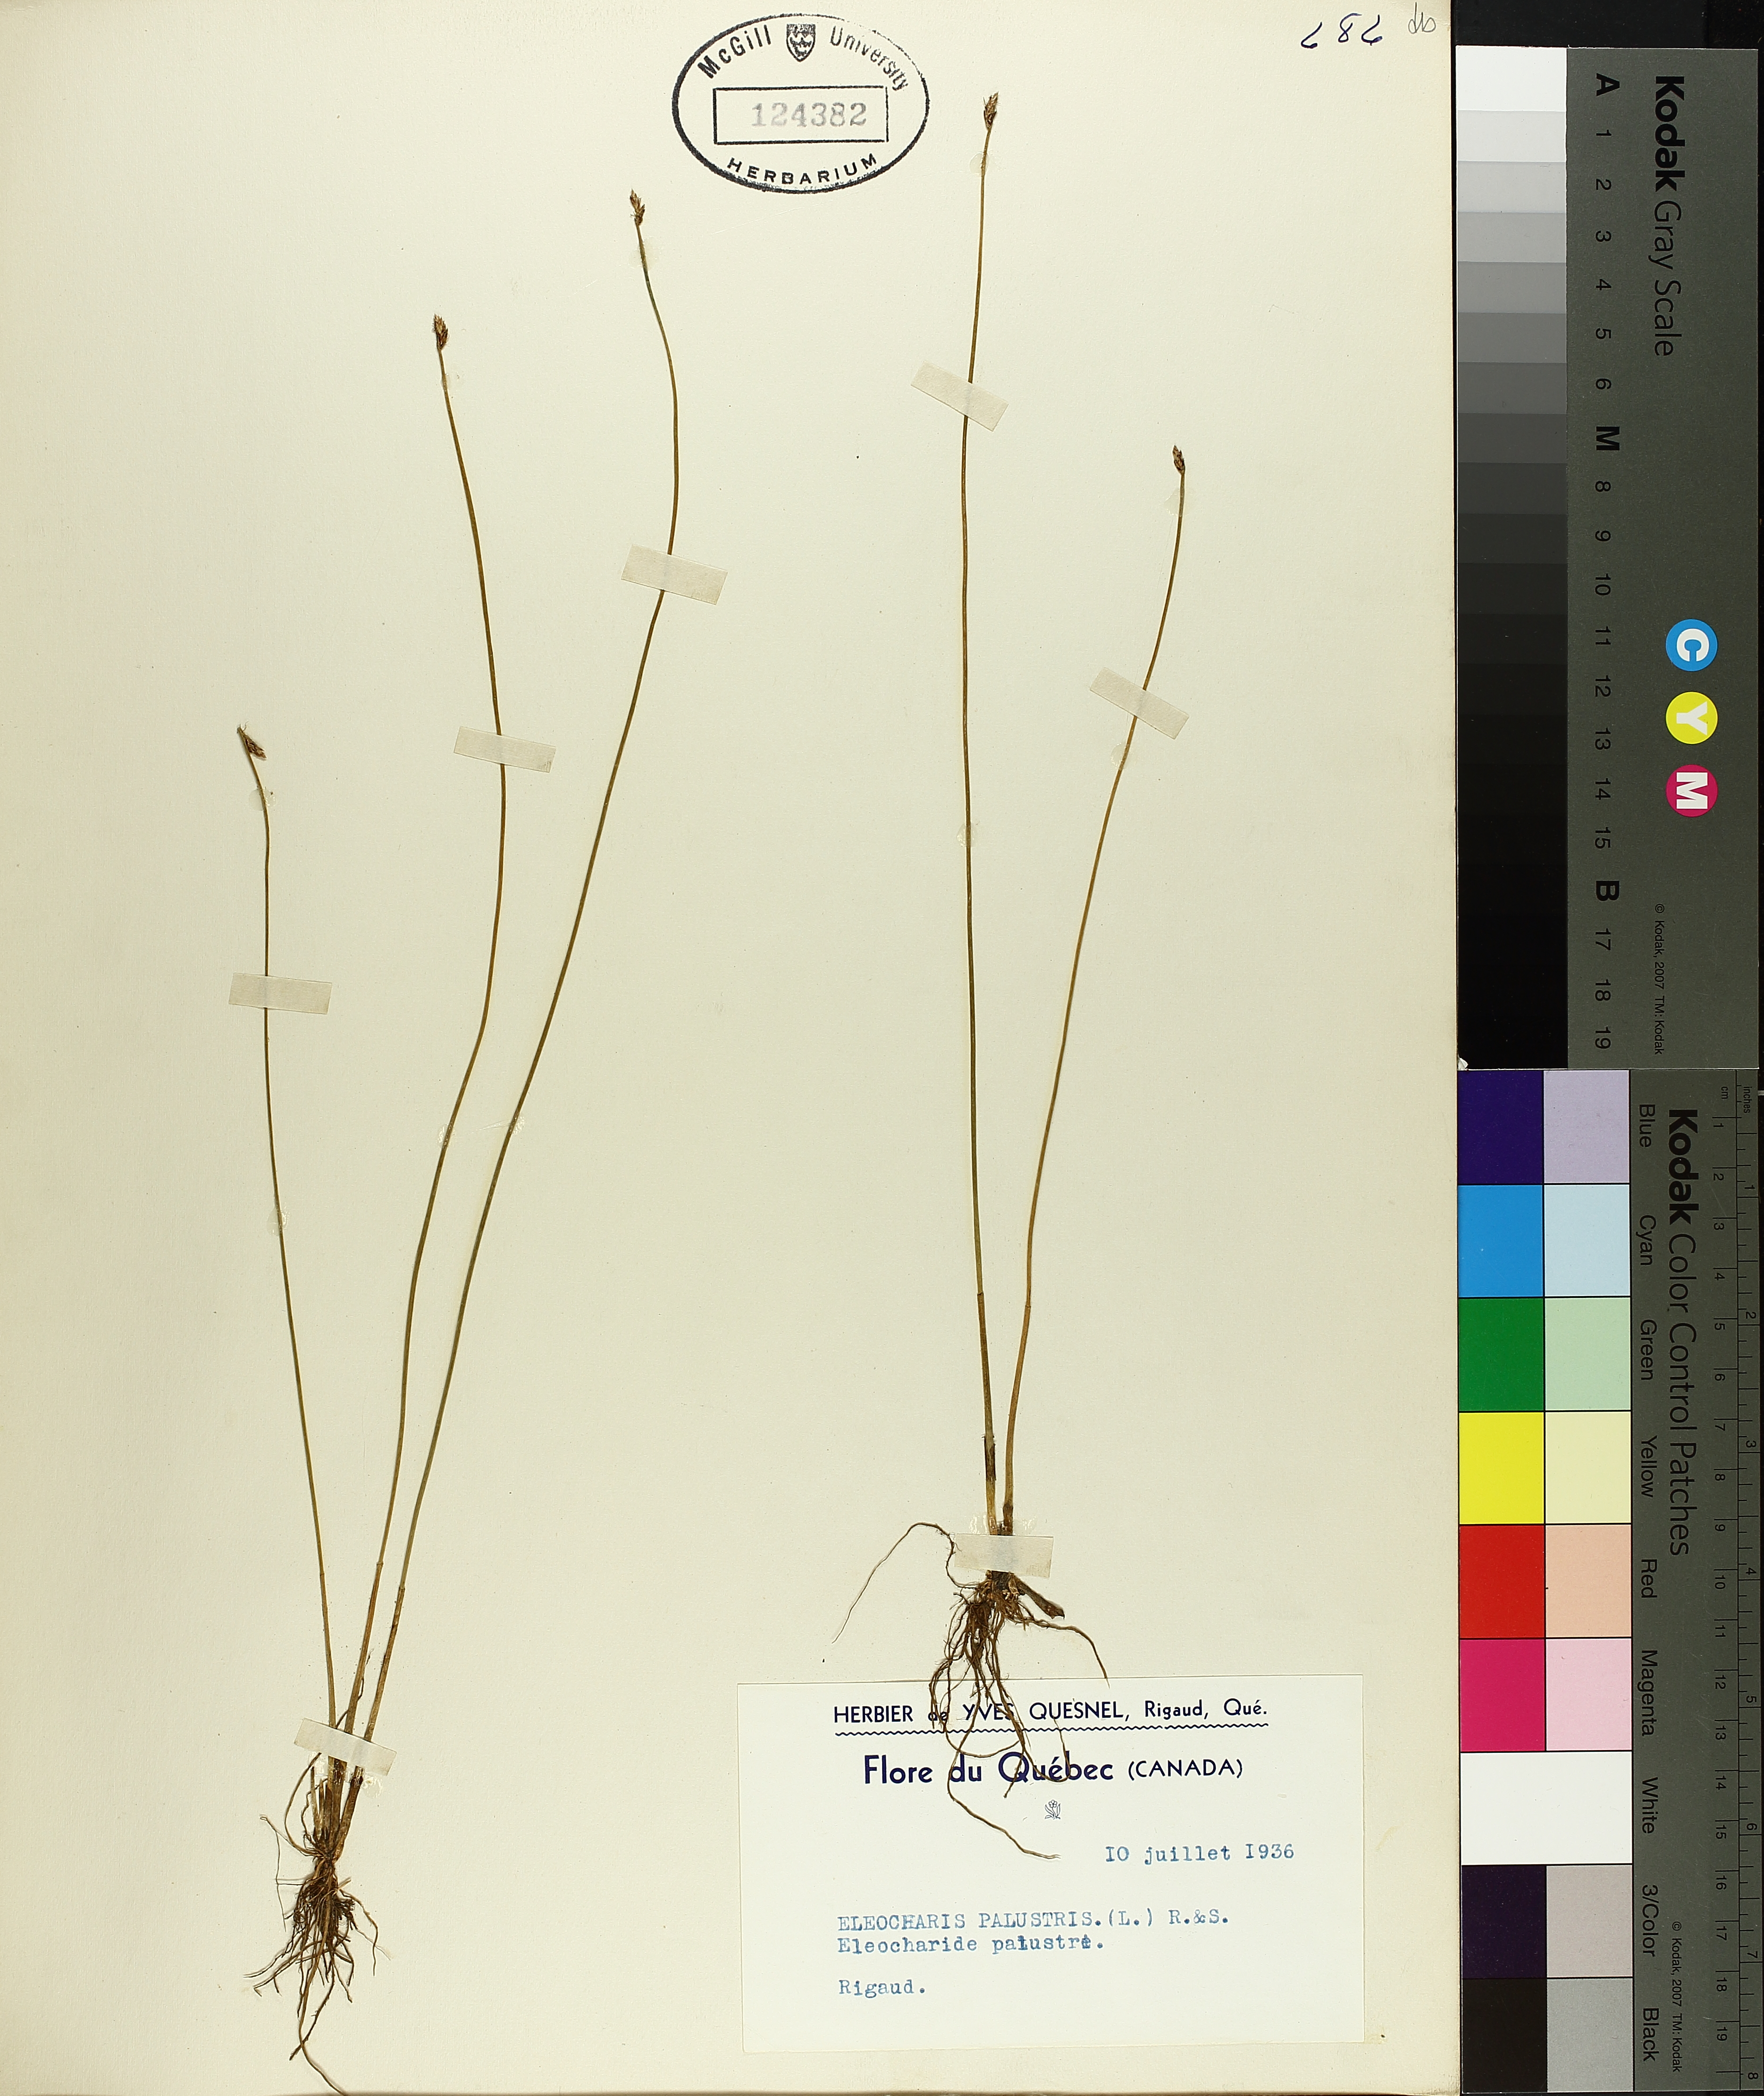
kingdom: Plantae
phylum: Tracheophyta
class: Liliopsida
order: Poales
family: Cyperaceae
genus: Eleocharis
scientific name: Eleocharis palustris
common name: Common spike-rush
